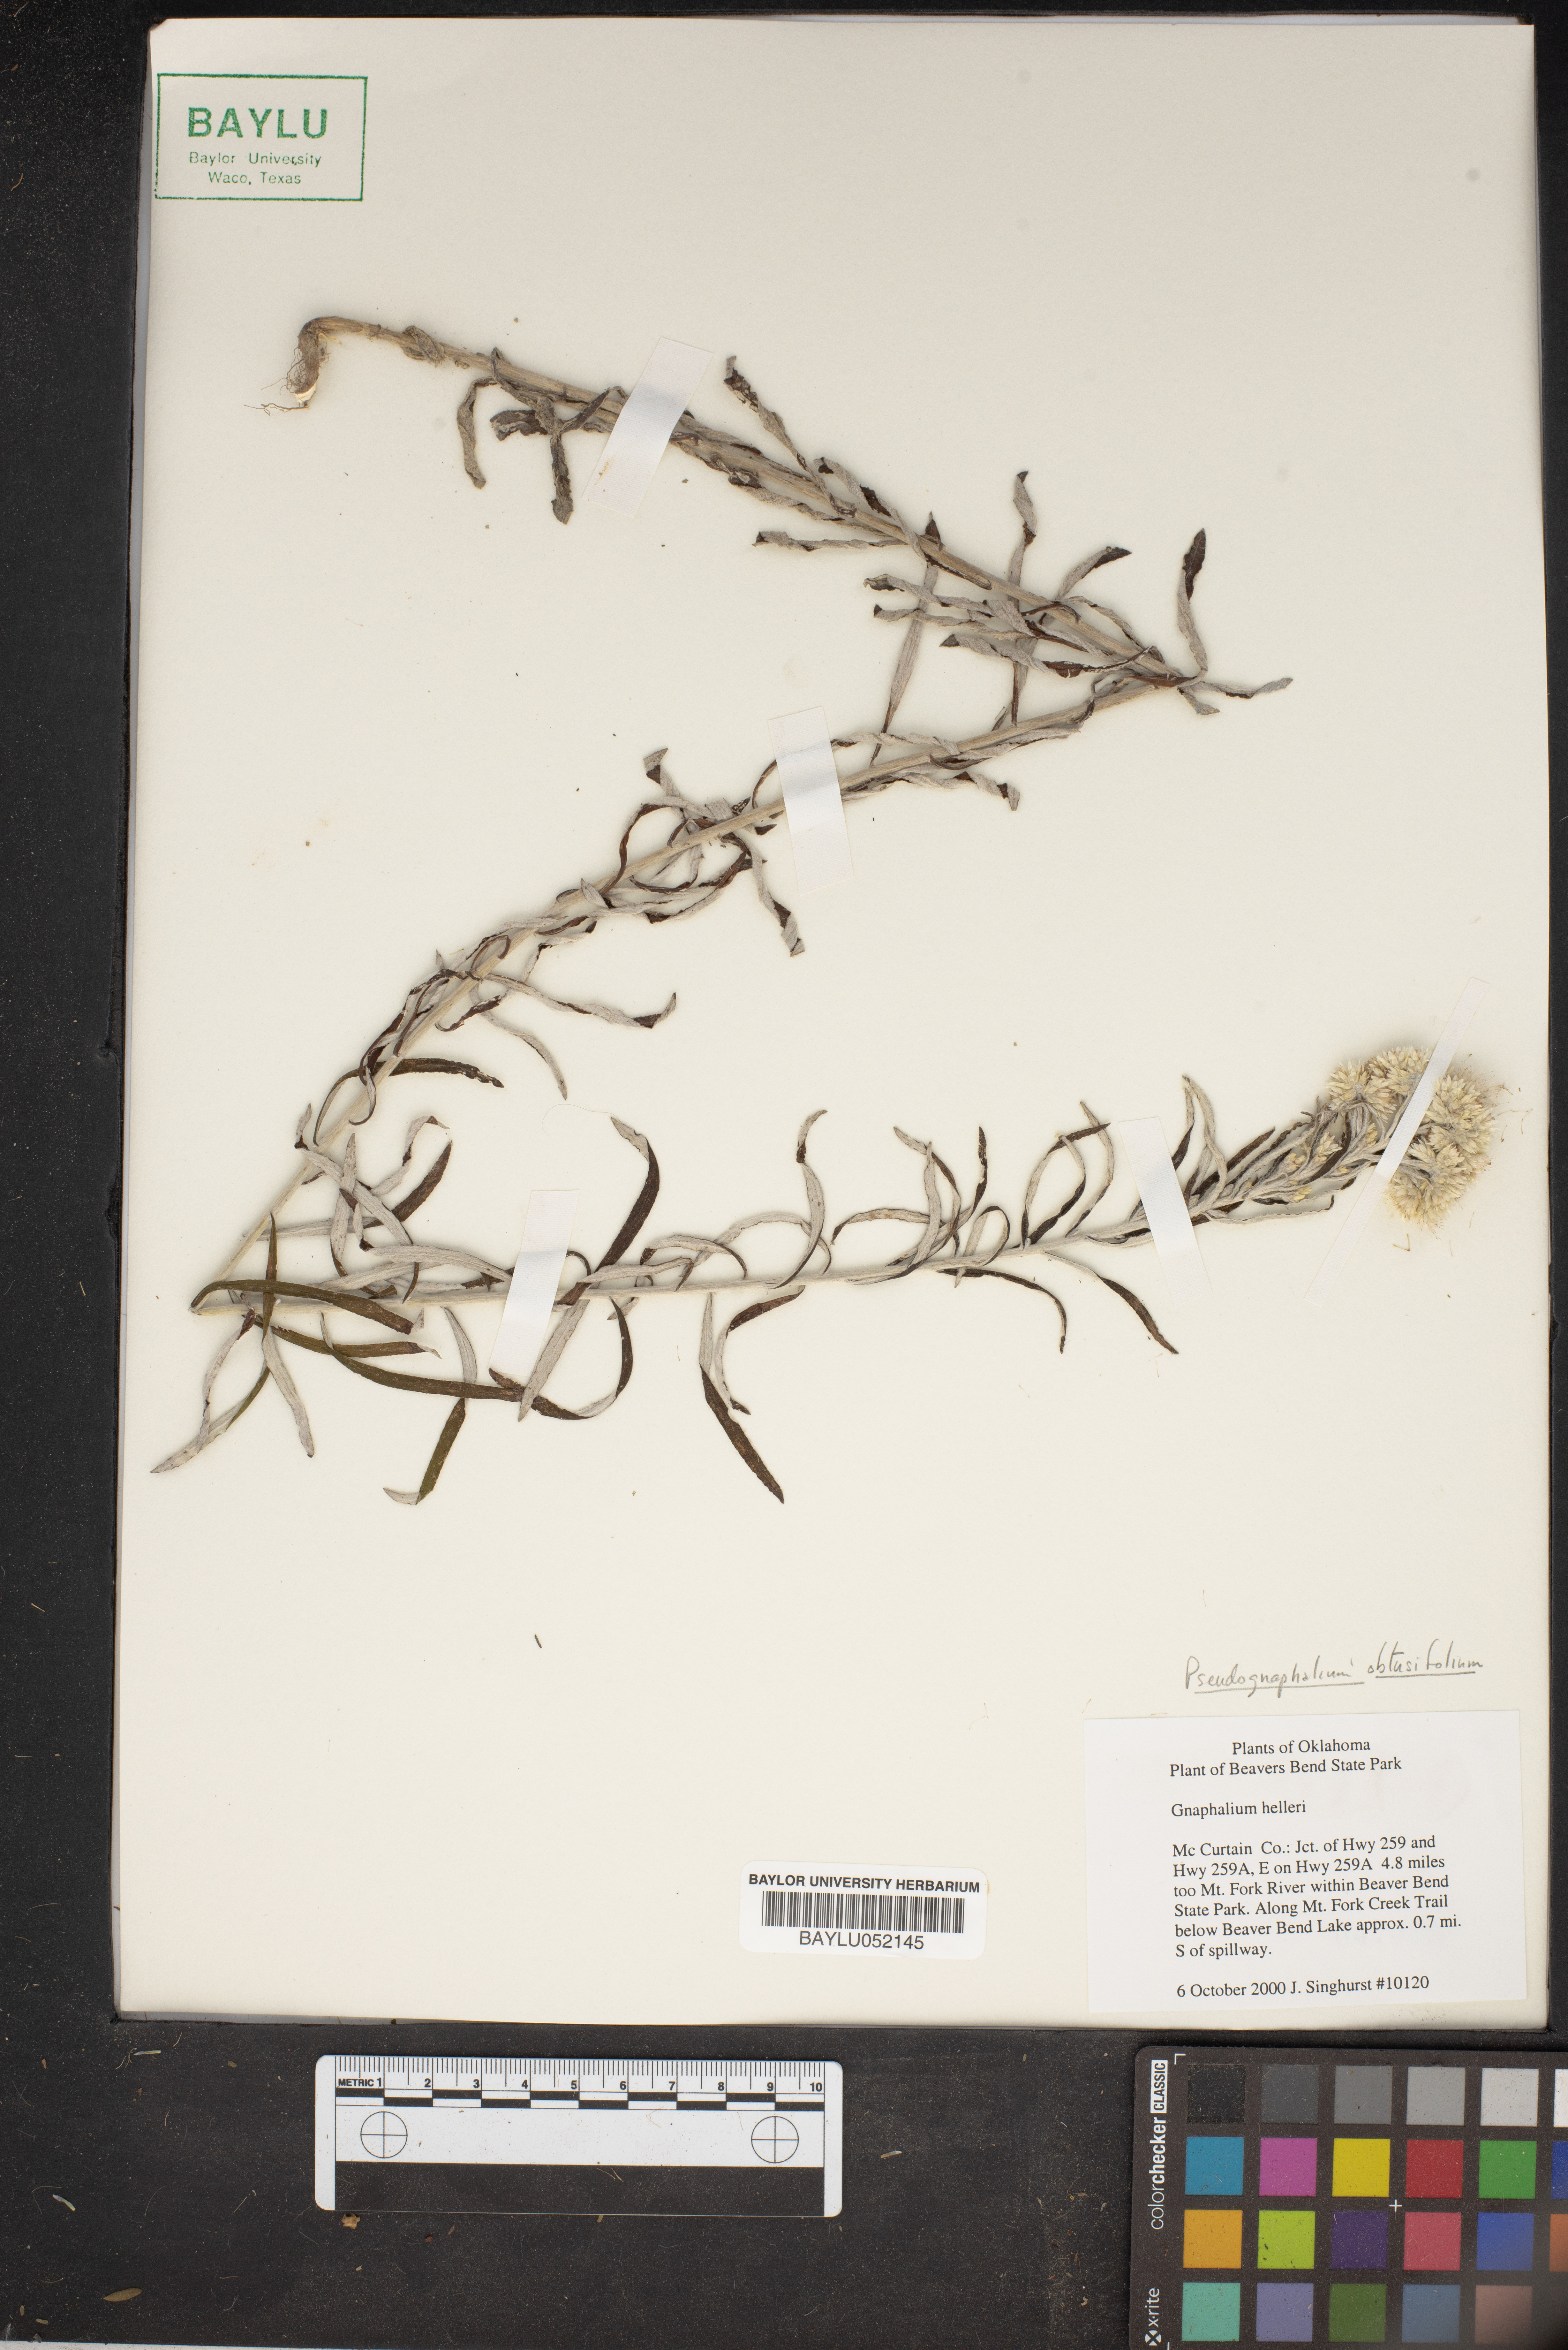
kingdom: Plantae
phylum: Tracheophyta
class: Magnoliopsida
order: Asterales
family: Asteraceae
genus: Pseudognaphalium
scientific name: Pseudognaphalium helleri
